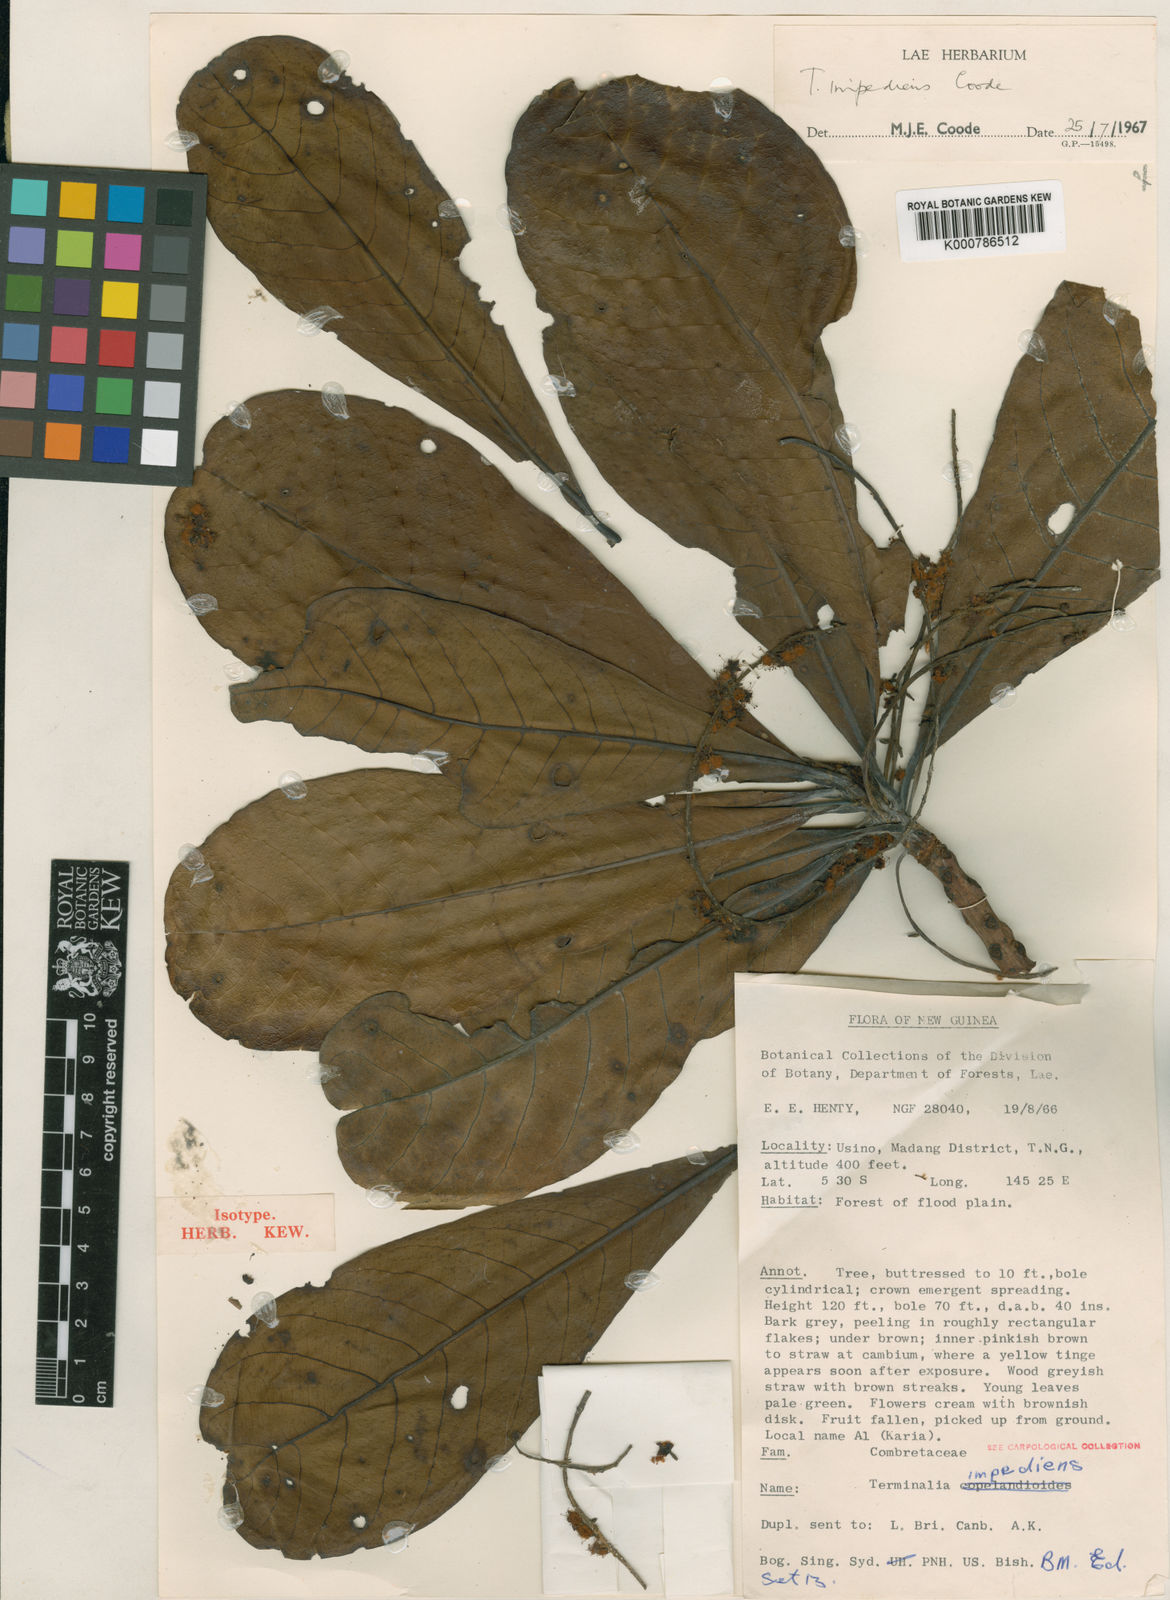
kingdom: Plantae
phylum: Tracheophyta
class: Magnoliopsida
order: Myrtales
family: Combretaceae
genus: Terminalia
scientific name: Terminalia impediens
